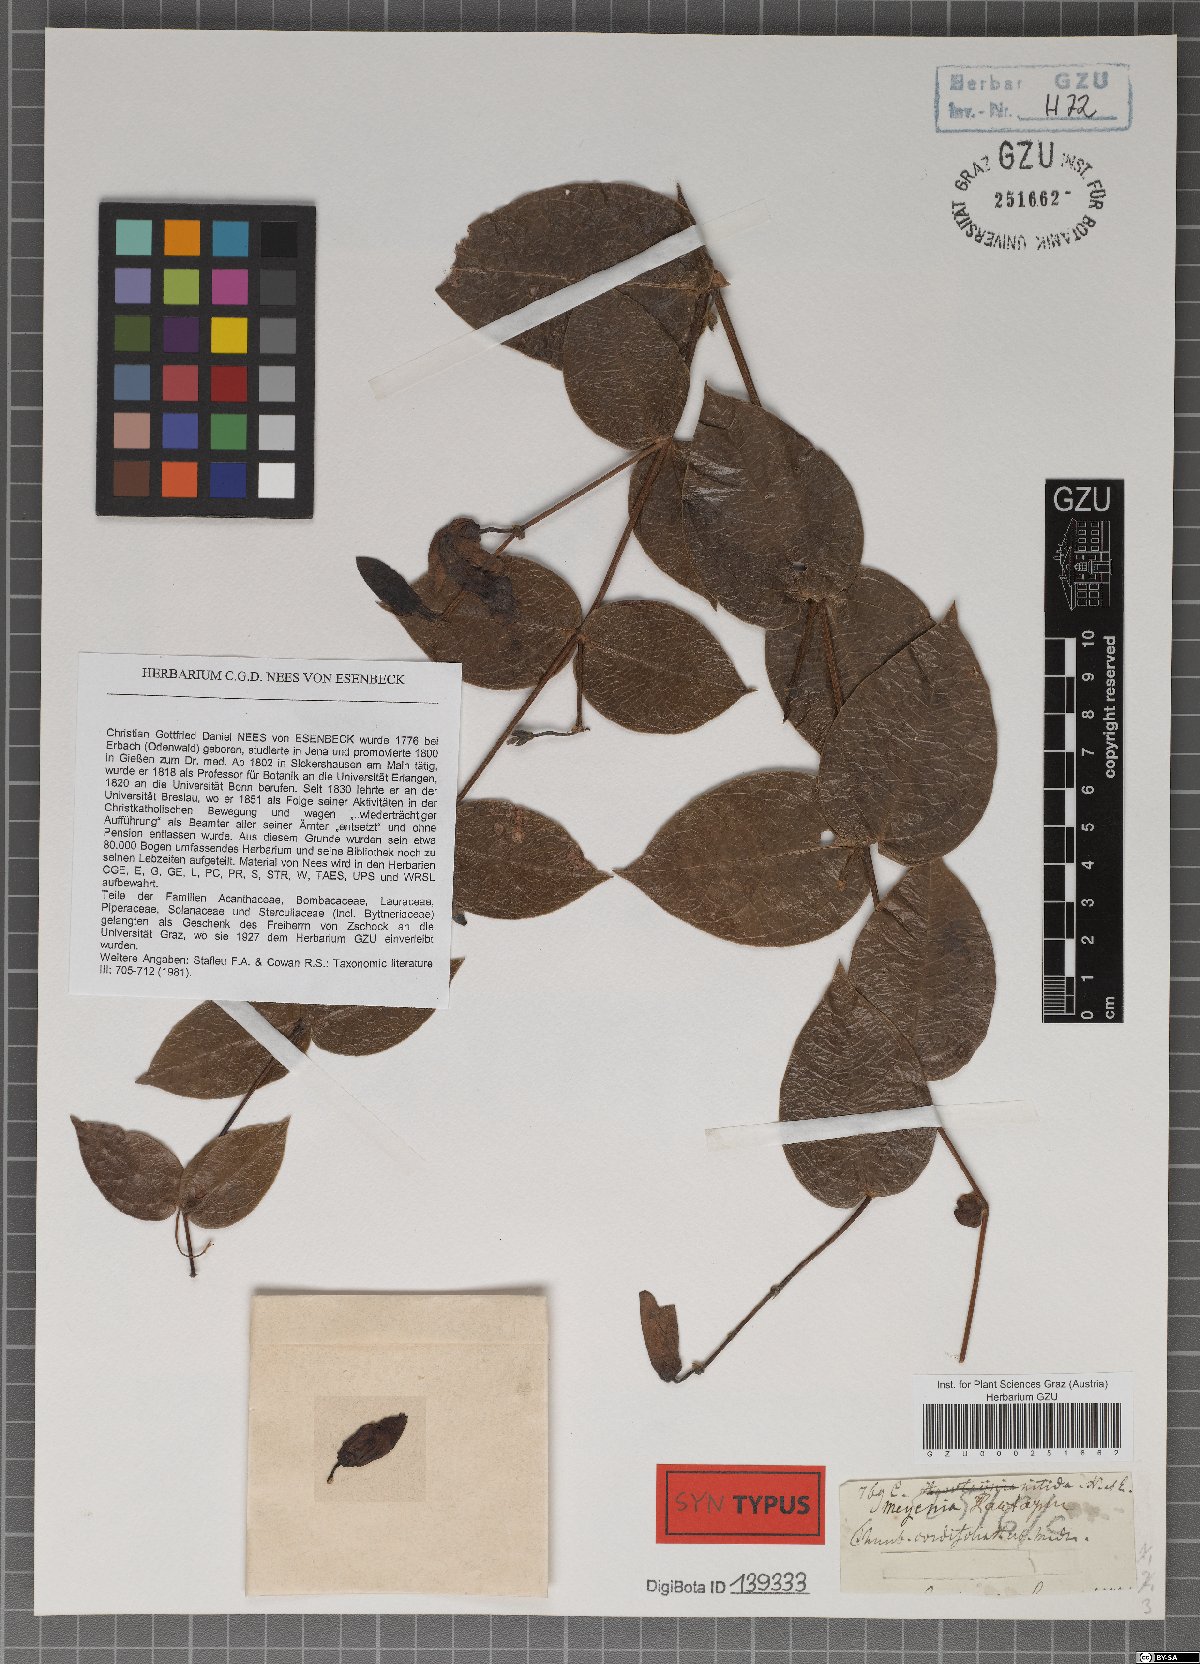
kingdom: Plantae
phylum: Tracheophyta
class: Magnoliopsida
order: Lamiales
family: Acanthaceae
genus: Meyenia
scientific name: Meyenia hawtayneana
